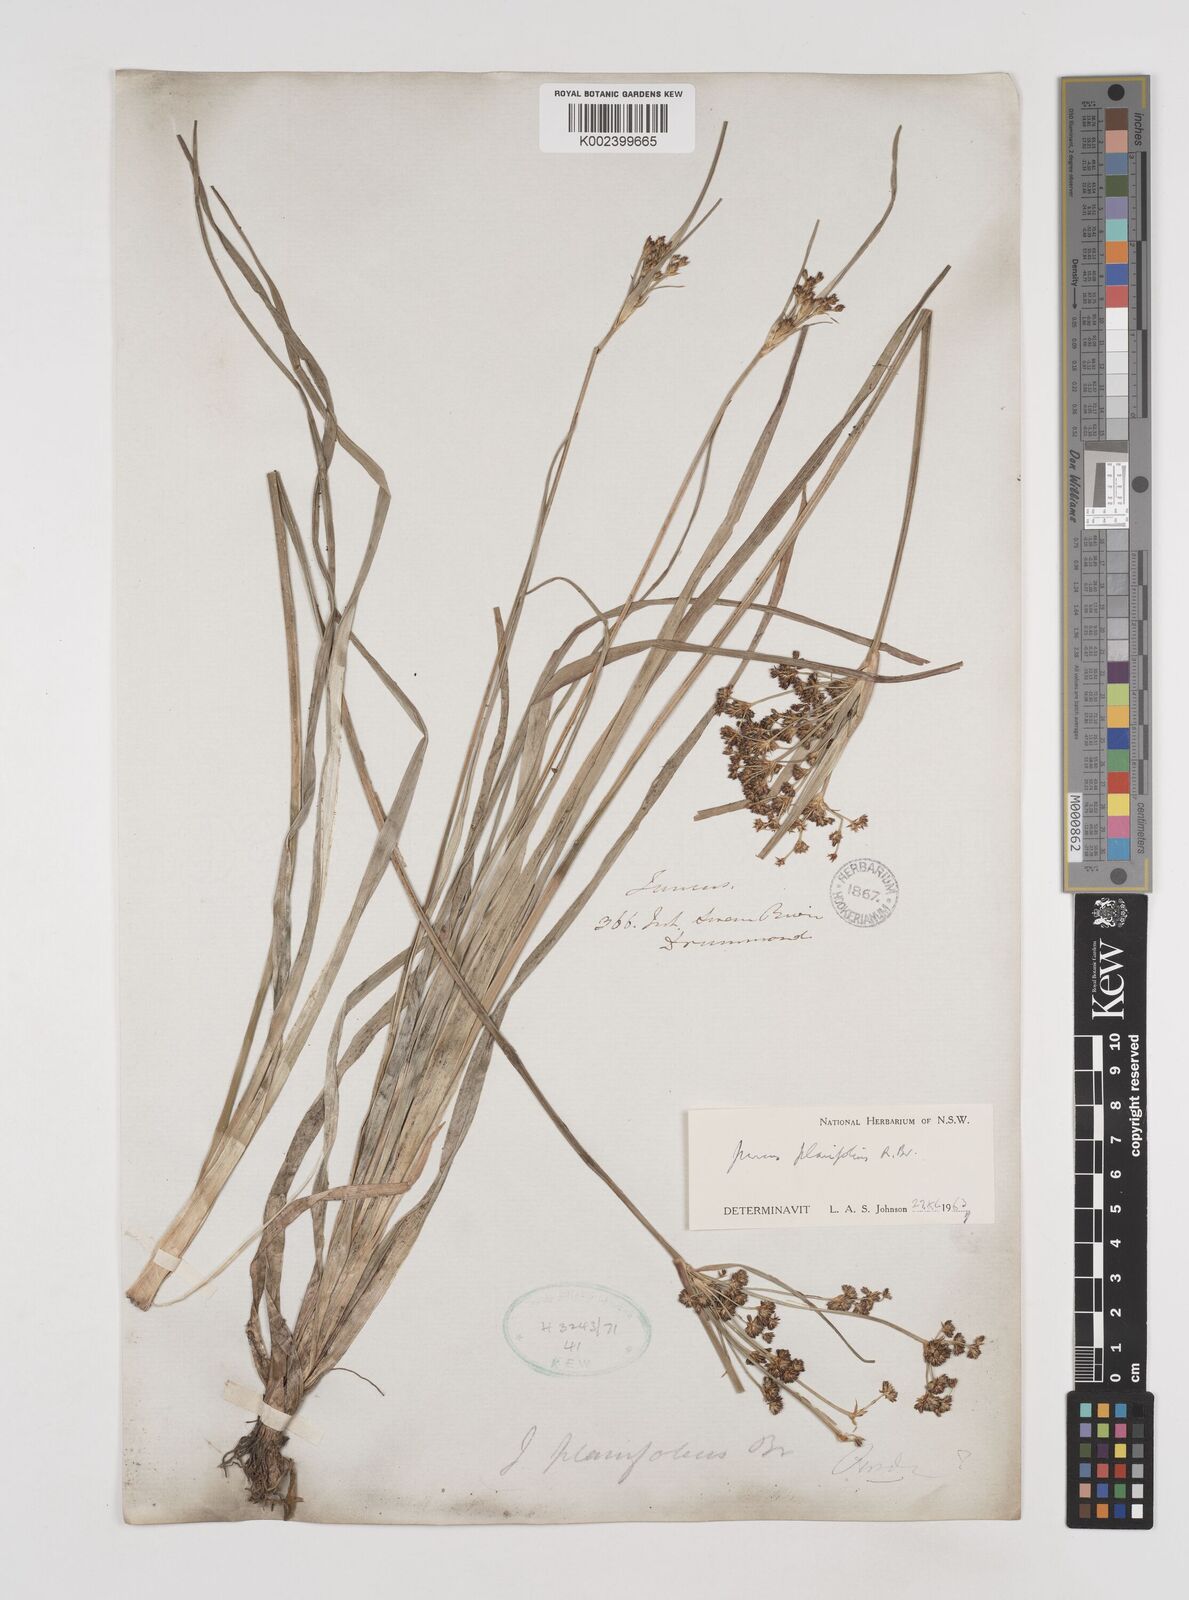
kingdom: Plantae
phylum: Tracheophyta
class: Liliopsida
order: Poales
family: Juncaceae
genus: Juncus
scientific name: Juncus planifolius
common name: Broadleaf rush
